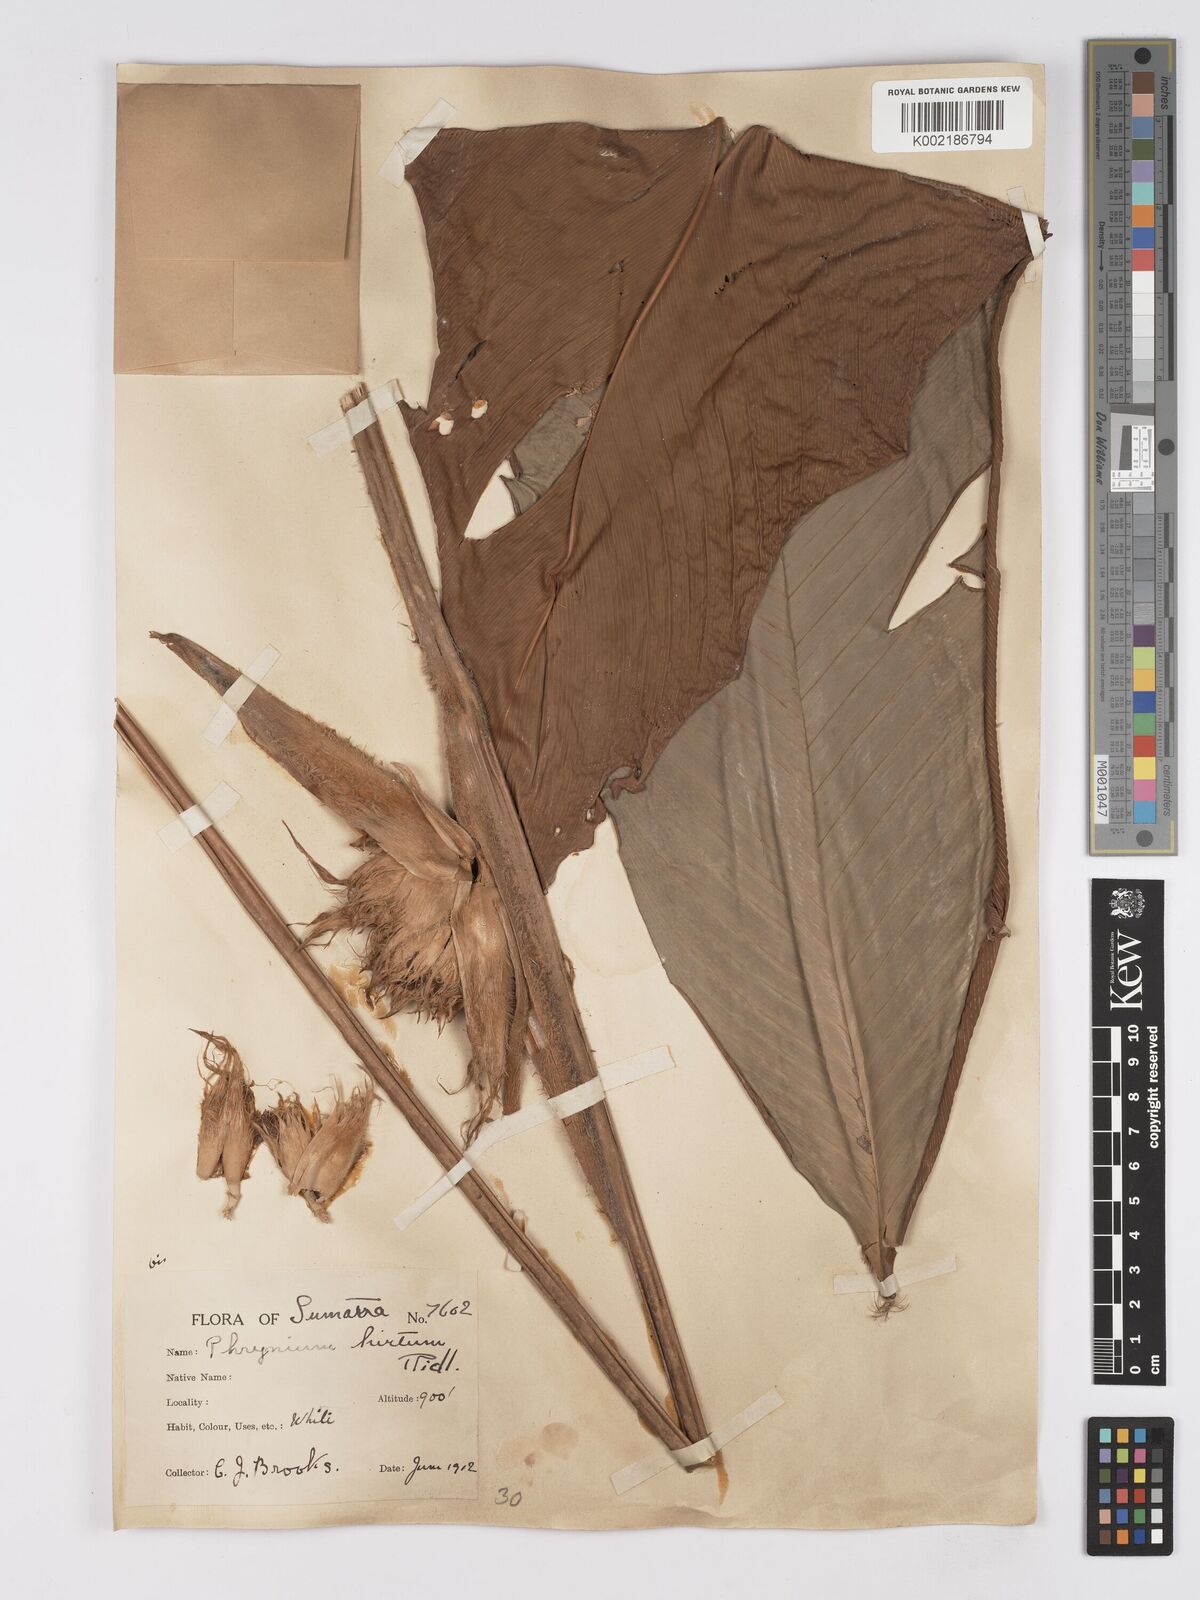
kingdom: Plantae
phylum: Tracheophyta
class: Liliopsida
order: Zingiberales
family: Marantaceae
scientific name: Marantaceae
